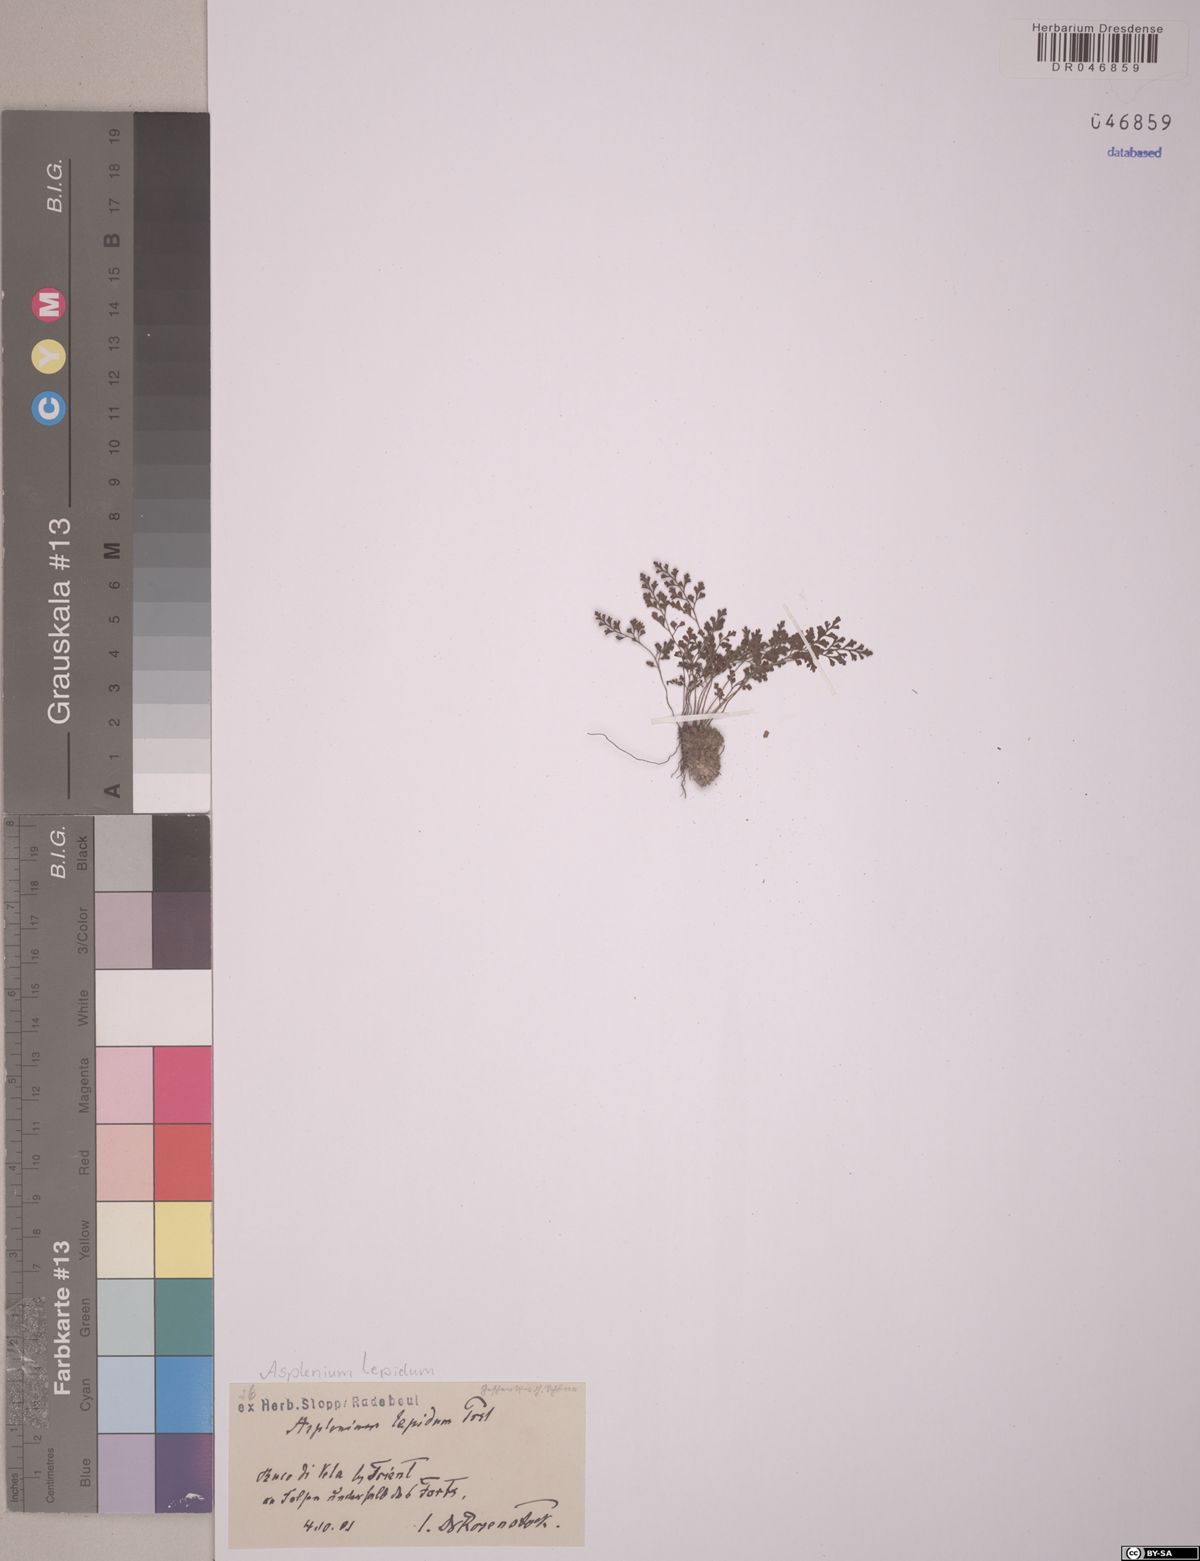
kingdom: Plantae
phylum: Tracheophyta
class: Polypodiopsida
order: Polypodiales
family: Aspleniaceae
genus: Asplenium
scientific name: Asplenium lepidum
